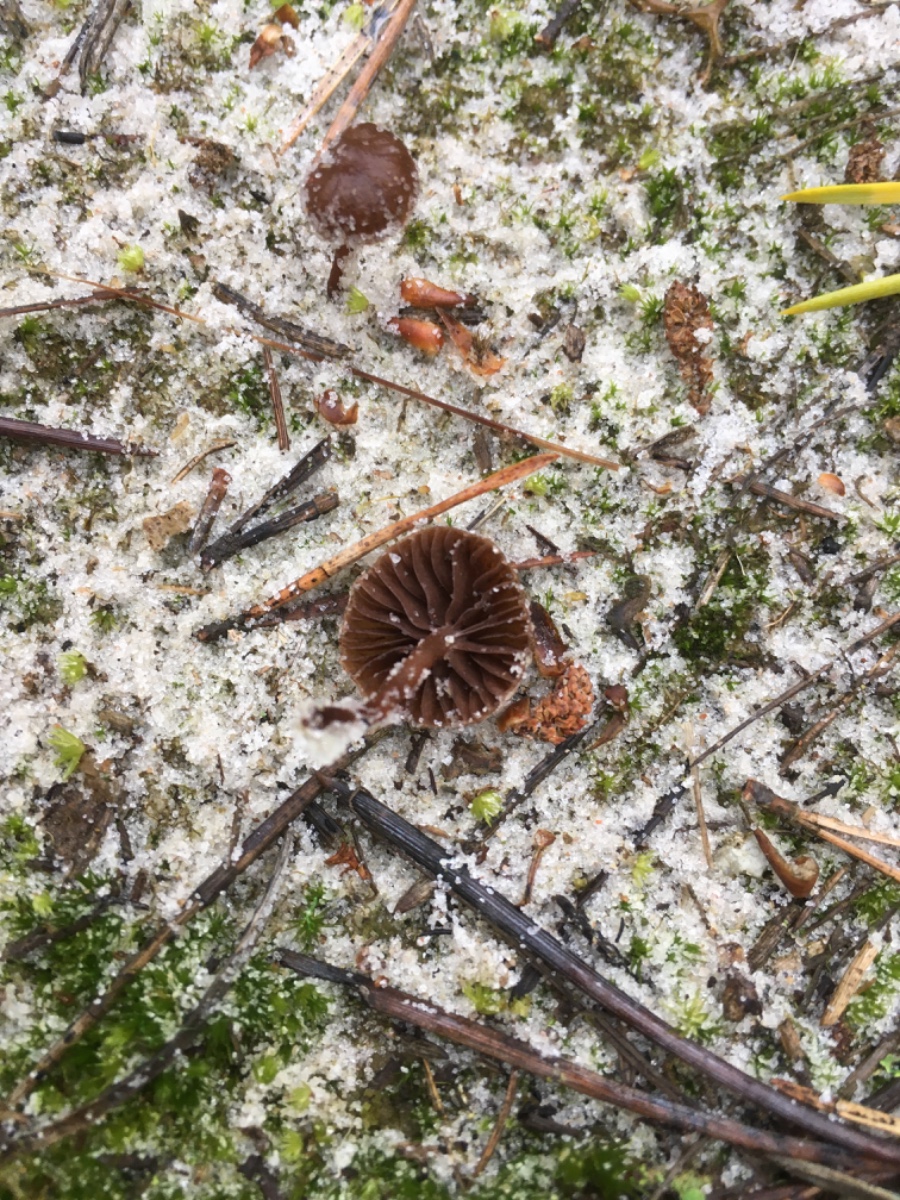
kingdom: Fungi
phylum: Basidiomycota
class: Agaricomycetes
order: Agaricales
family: Strophariaceae
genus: Deconica
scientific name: Deconica montana
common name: rødbrun stråhat
